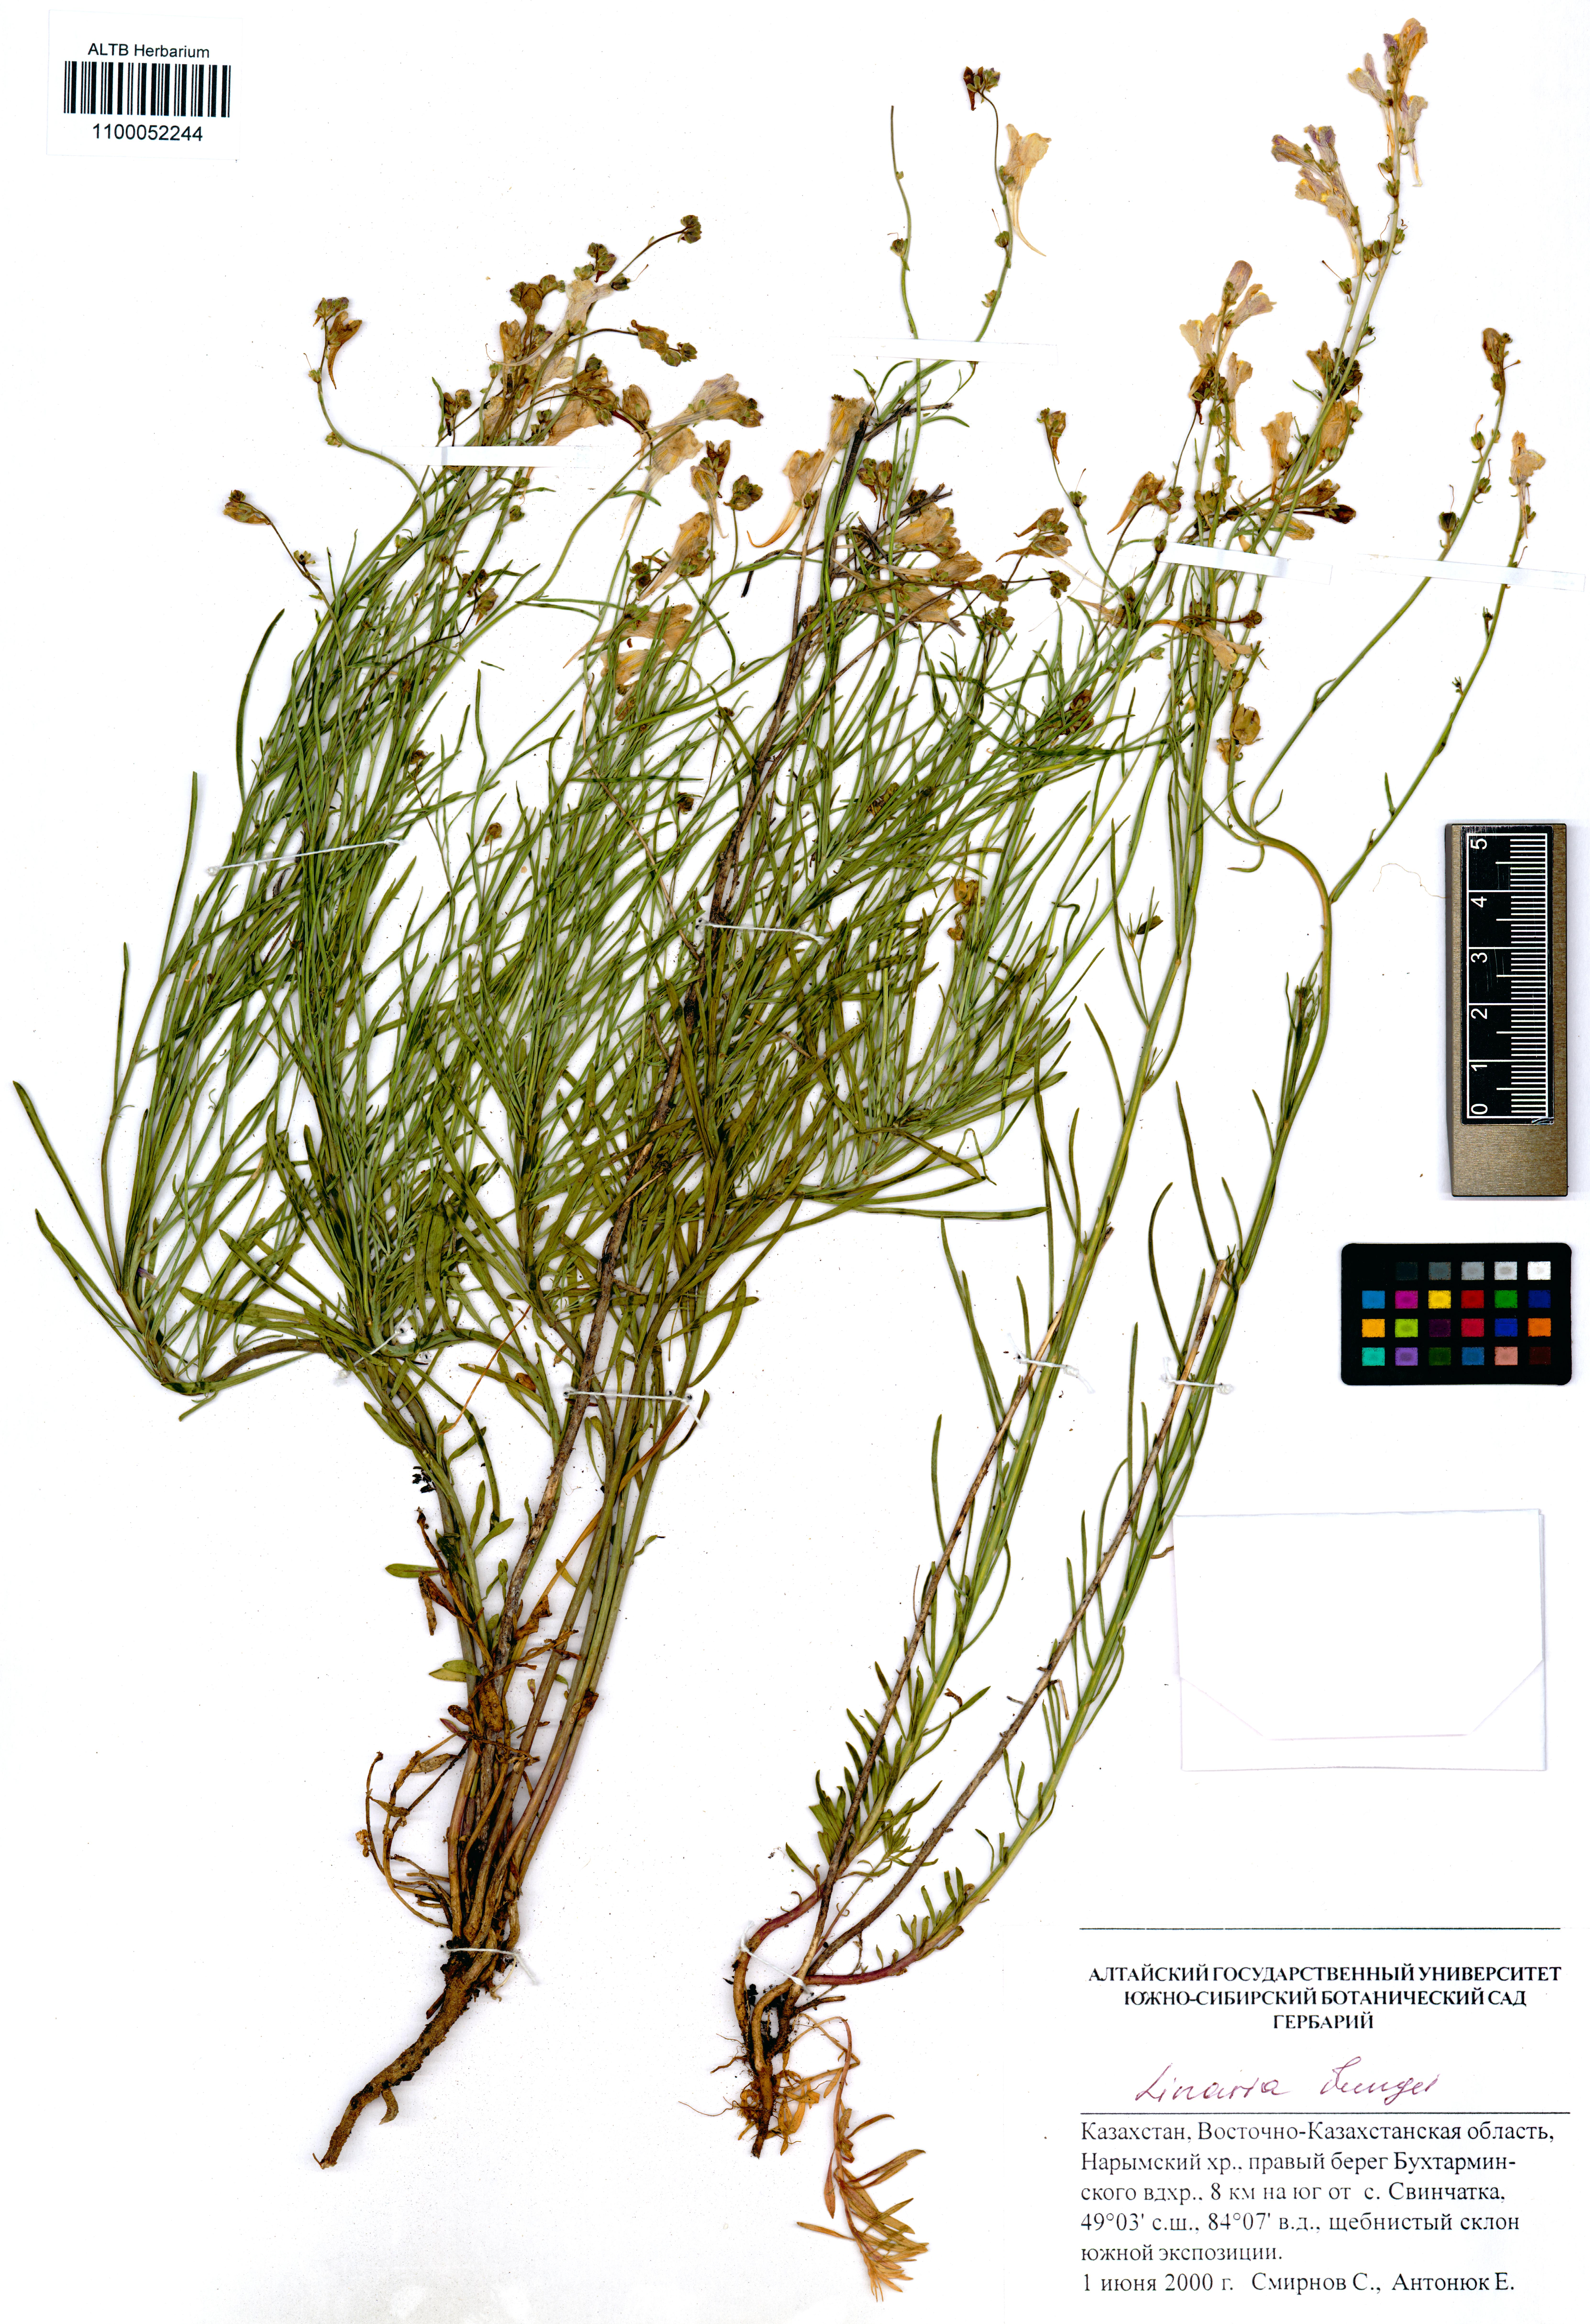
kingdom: Plantae
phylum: Tracheophyta
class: Magnoliopsida
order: Lamiales
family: Plantaginaceae
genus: Linaria
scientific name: Linaria bungei
